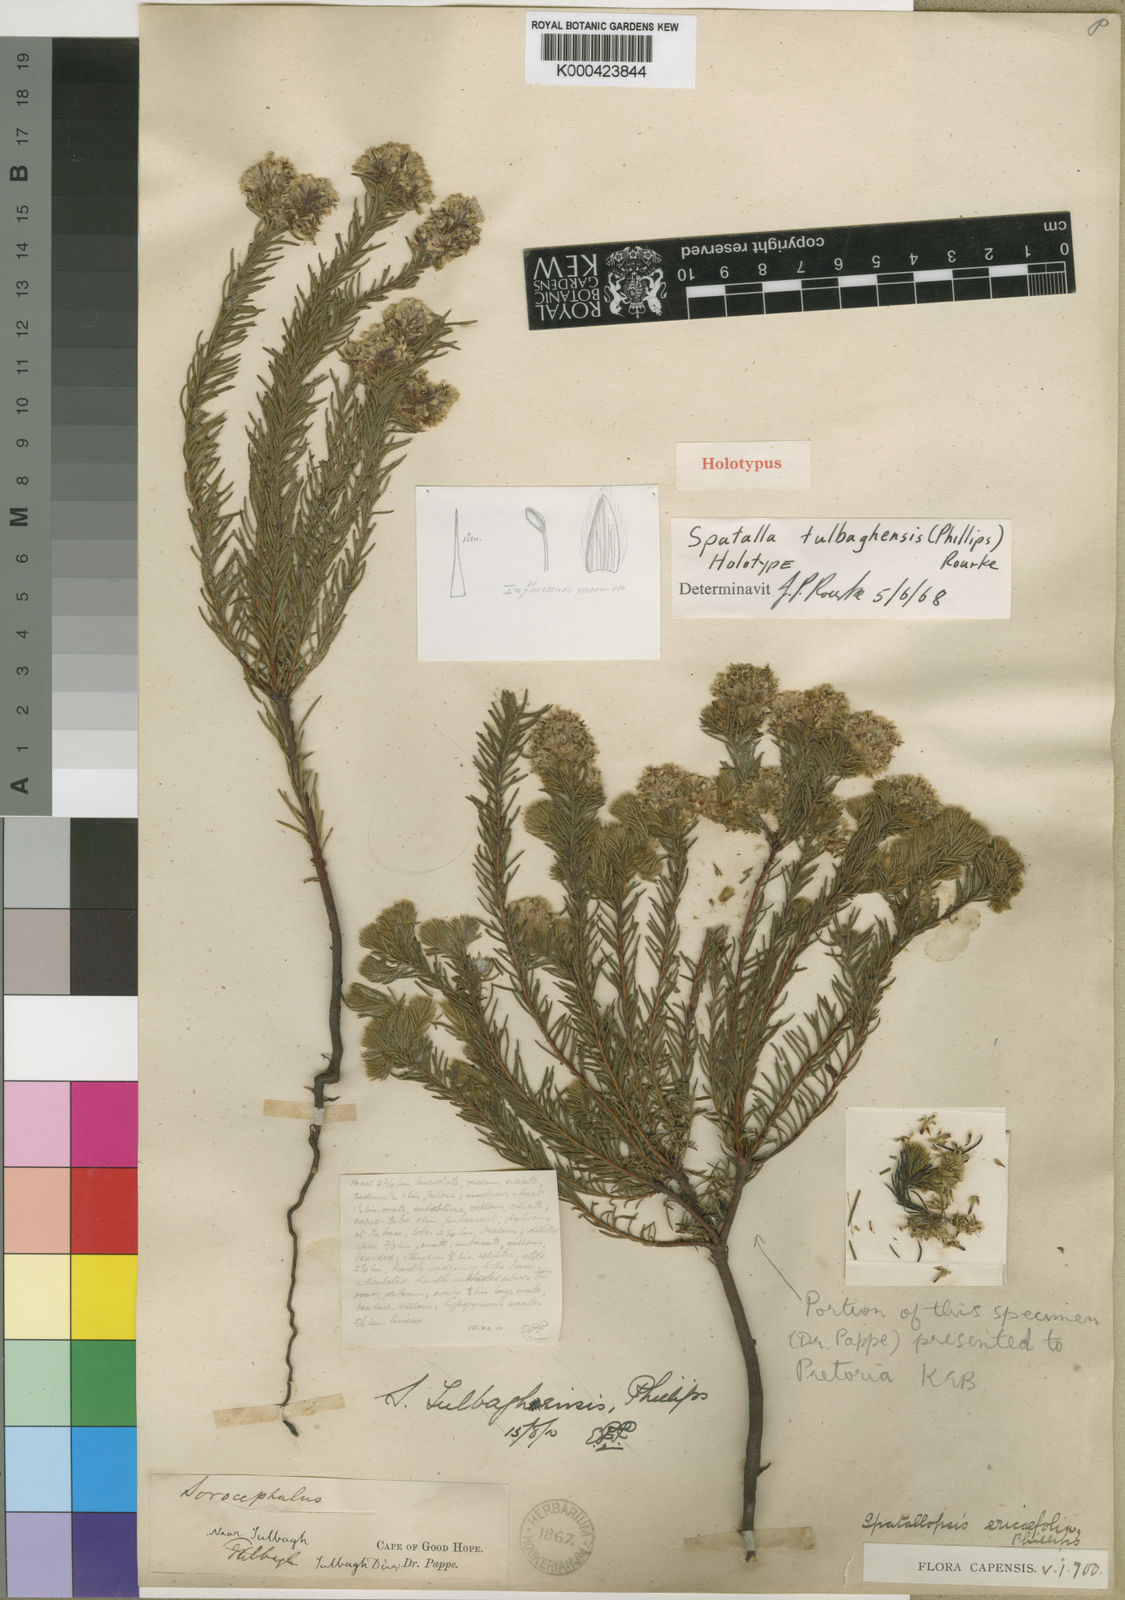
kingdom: Plantae
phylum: Tracheophyta
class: Magnoliopsida
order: Proteales
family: Proteaceae
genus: Spatalla
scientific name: Spatalla tulbaghensis
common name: Shaggy-hair spoon
